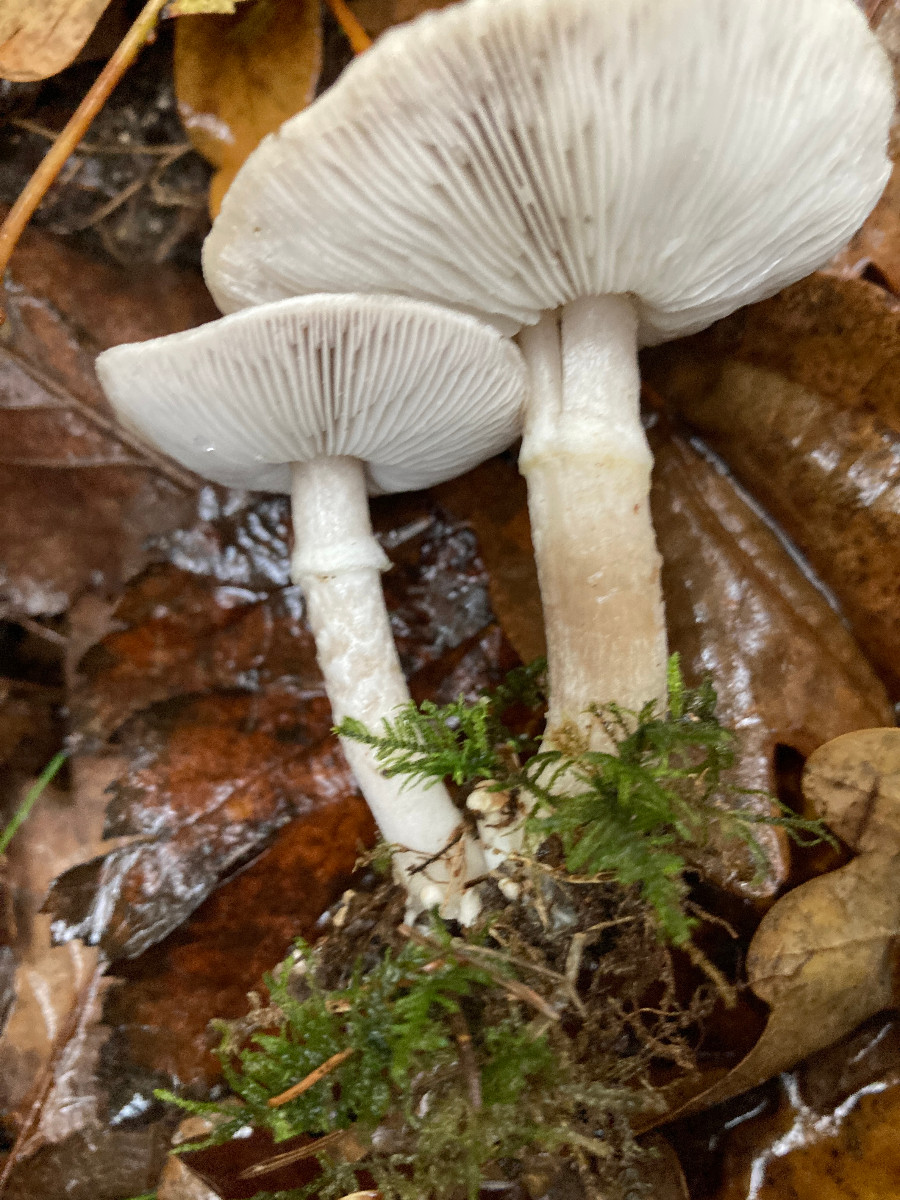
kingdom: Fungi
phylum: Basidiomycota
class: Agaricomycetes
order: Agaricales
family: Tricholomataceae
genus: Tricholoma
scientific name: Tricholoma cingulatum
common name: ring-ridderhat
